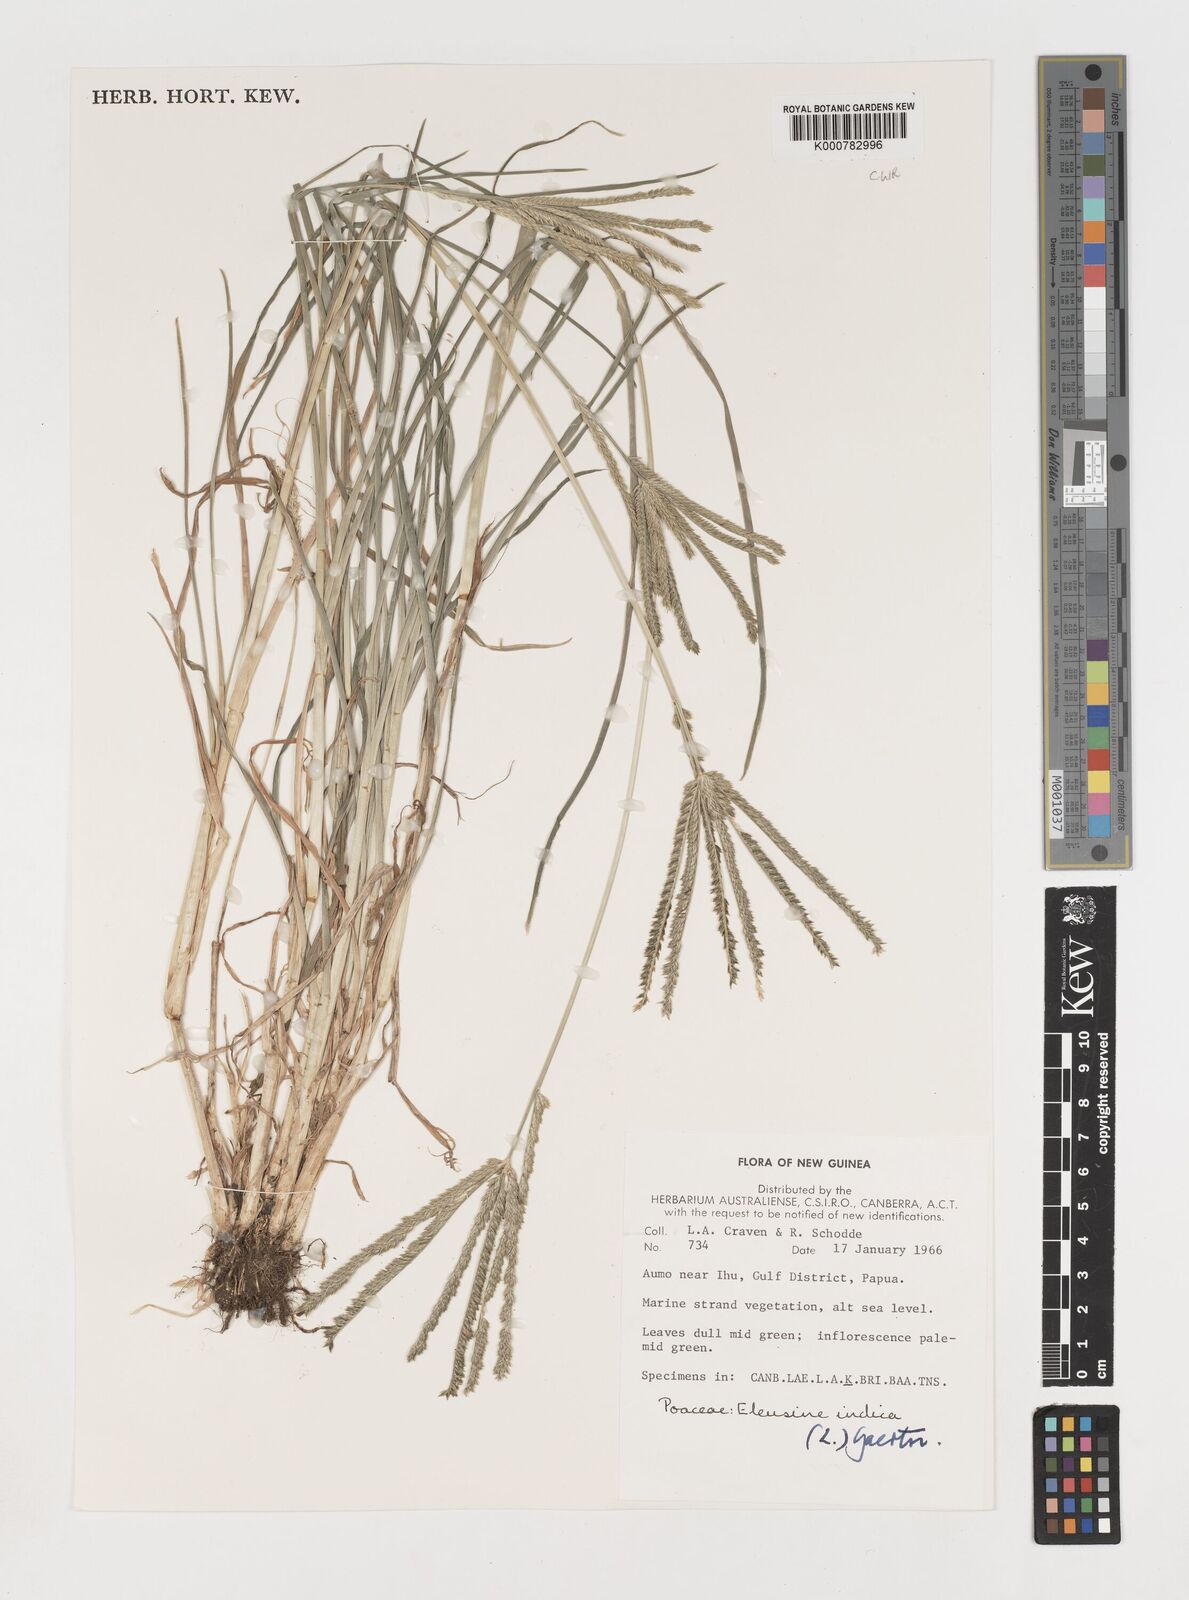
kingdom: Plantae
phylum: Tracheophyta
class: Liliopsida
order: Poales
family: Poaceae
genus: Eleusine
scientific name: Eleusine indica
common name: Yard-grass
